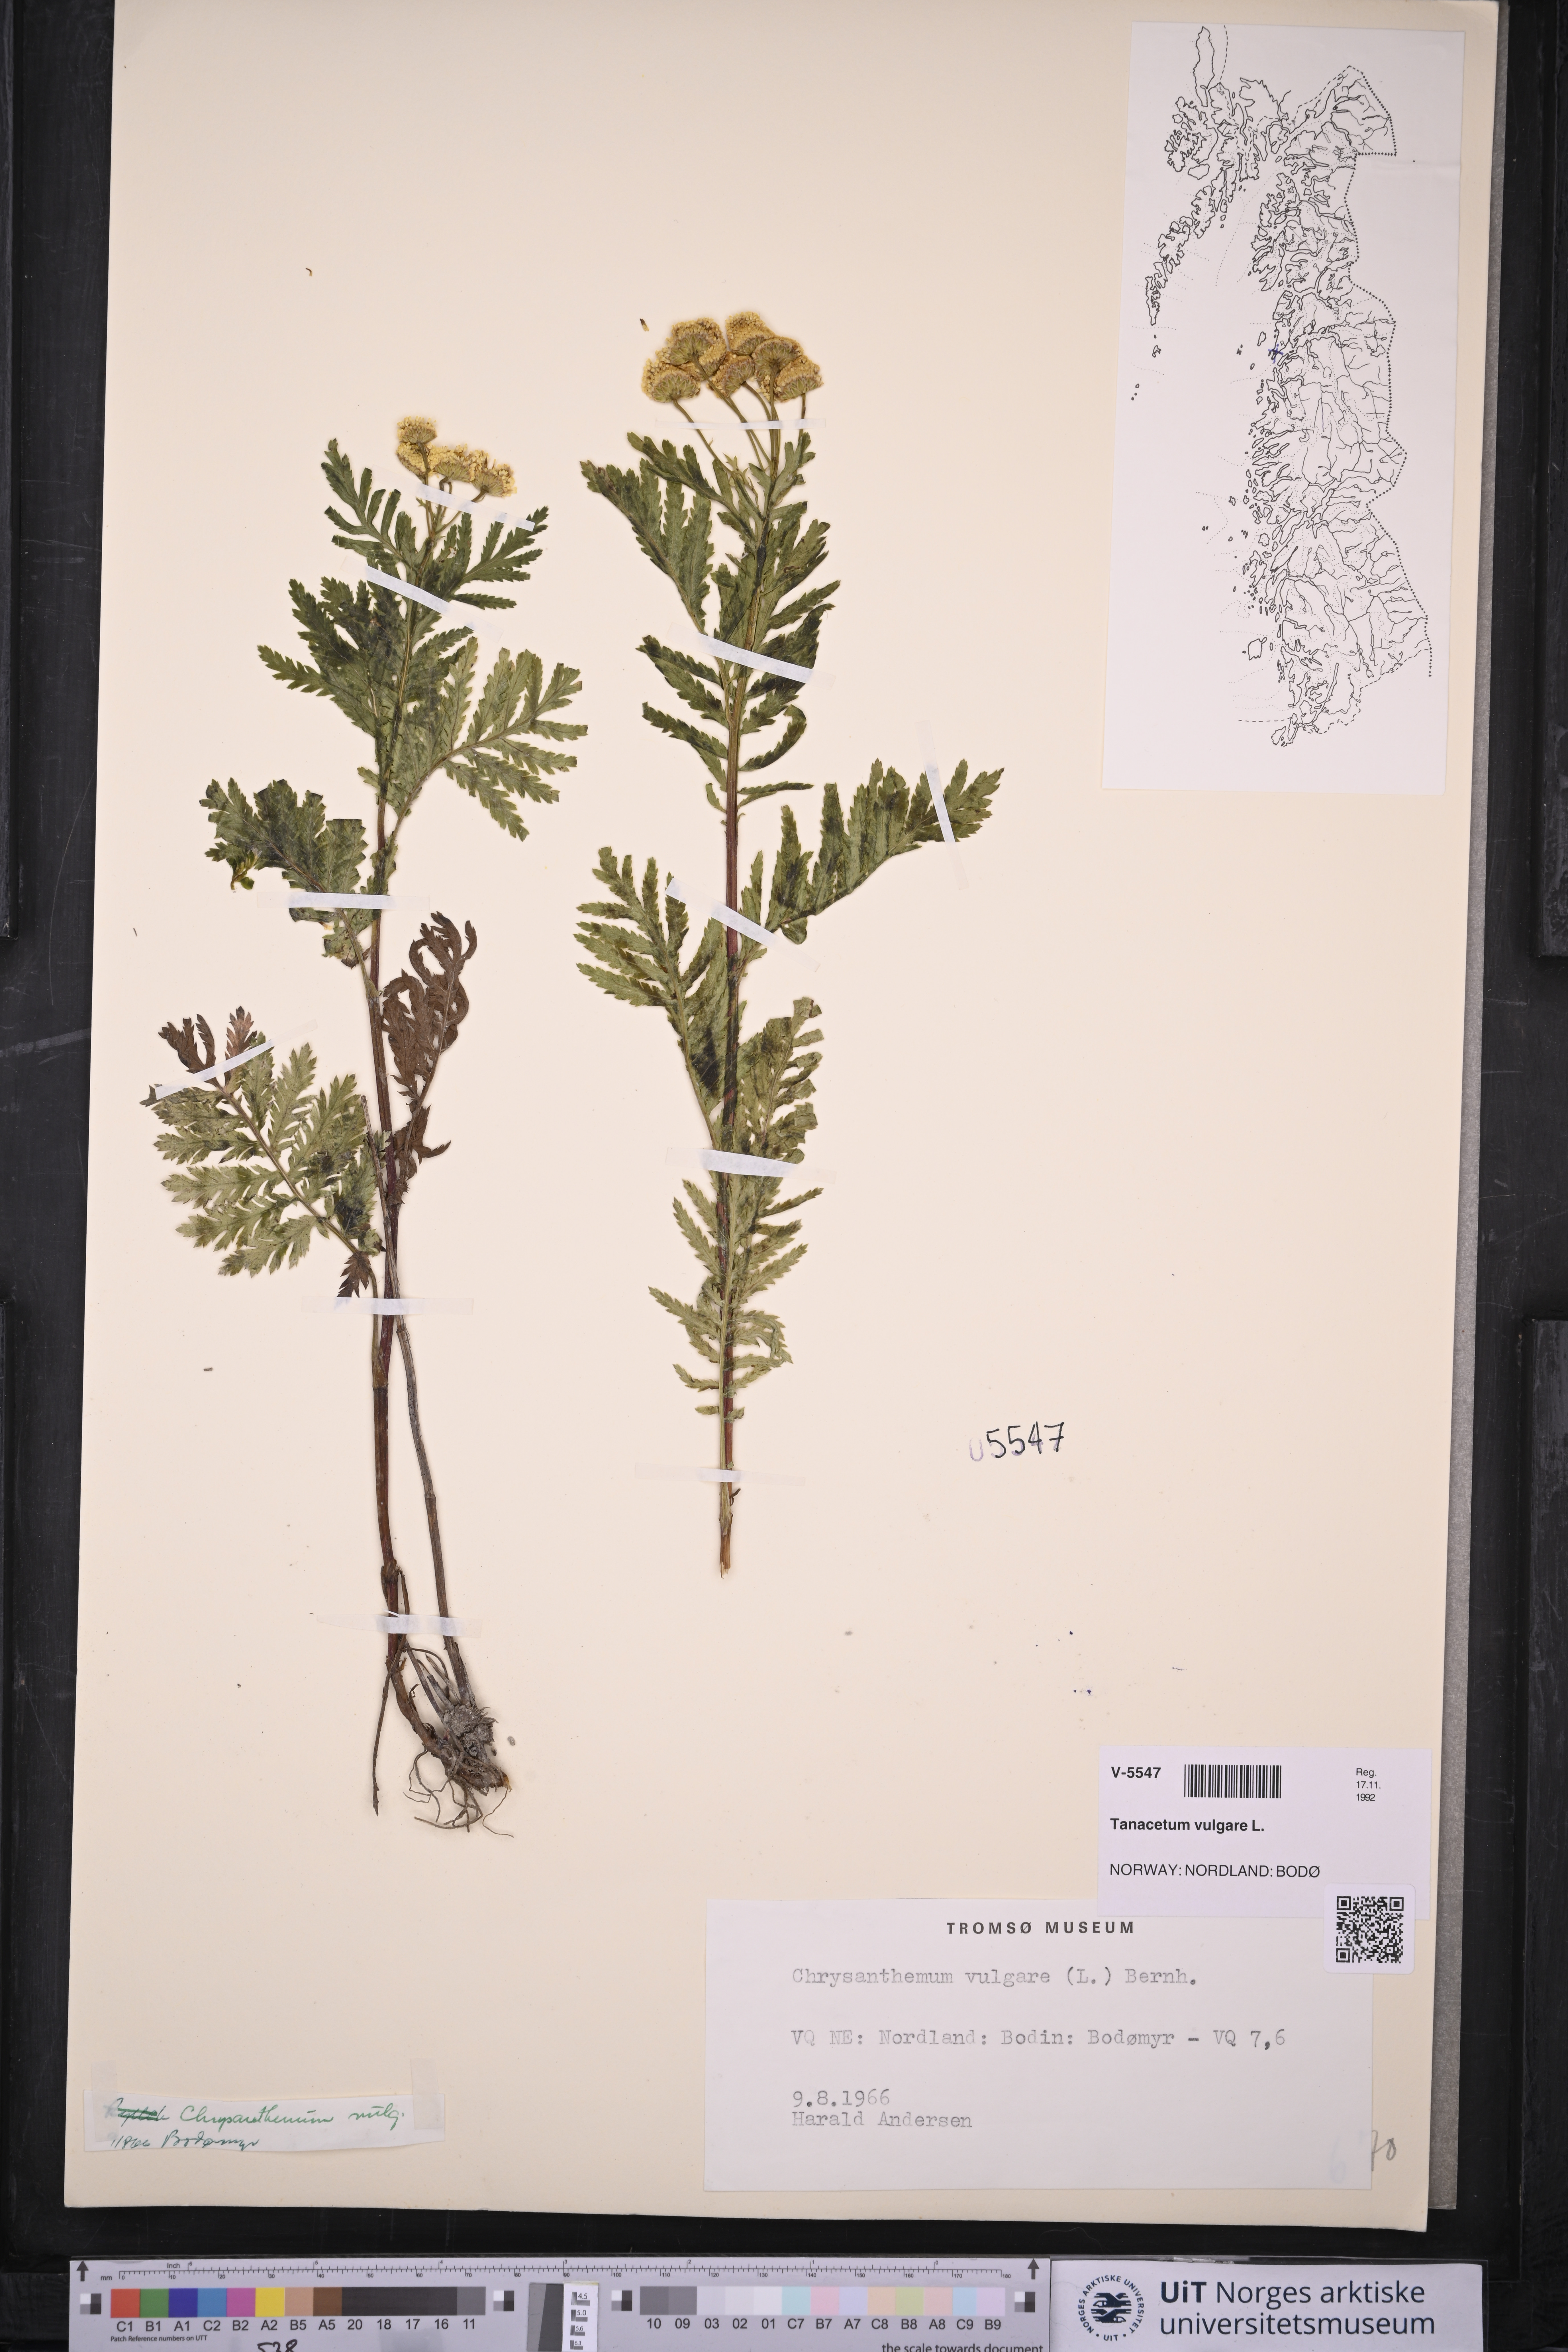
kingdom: Plantae
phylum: Tracheophyta
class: Magnoliopsida
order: Asterales
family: Asteraceae
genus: Tanacetum
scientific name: Tanacetum vulgare
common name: Common tansy
